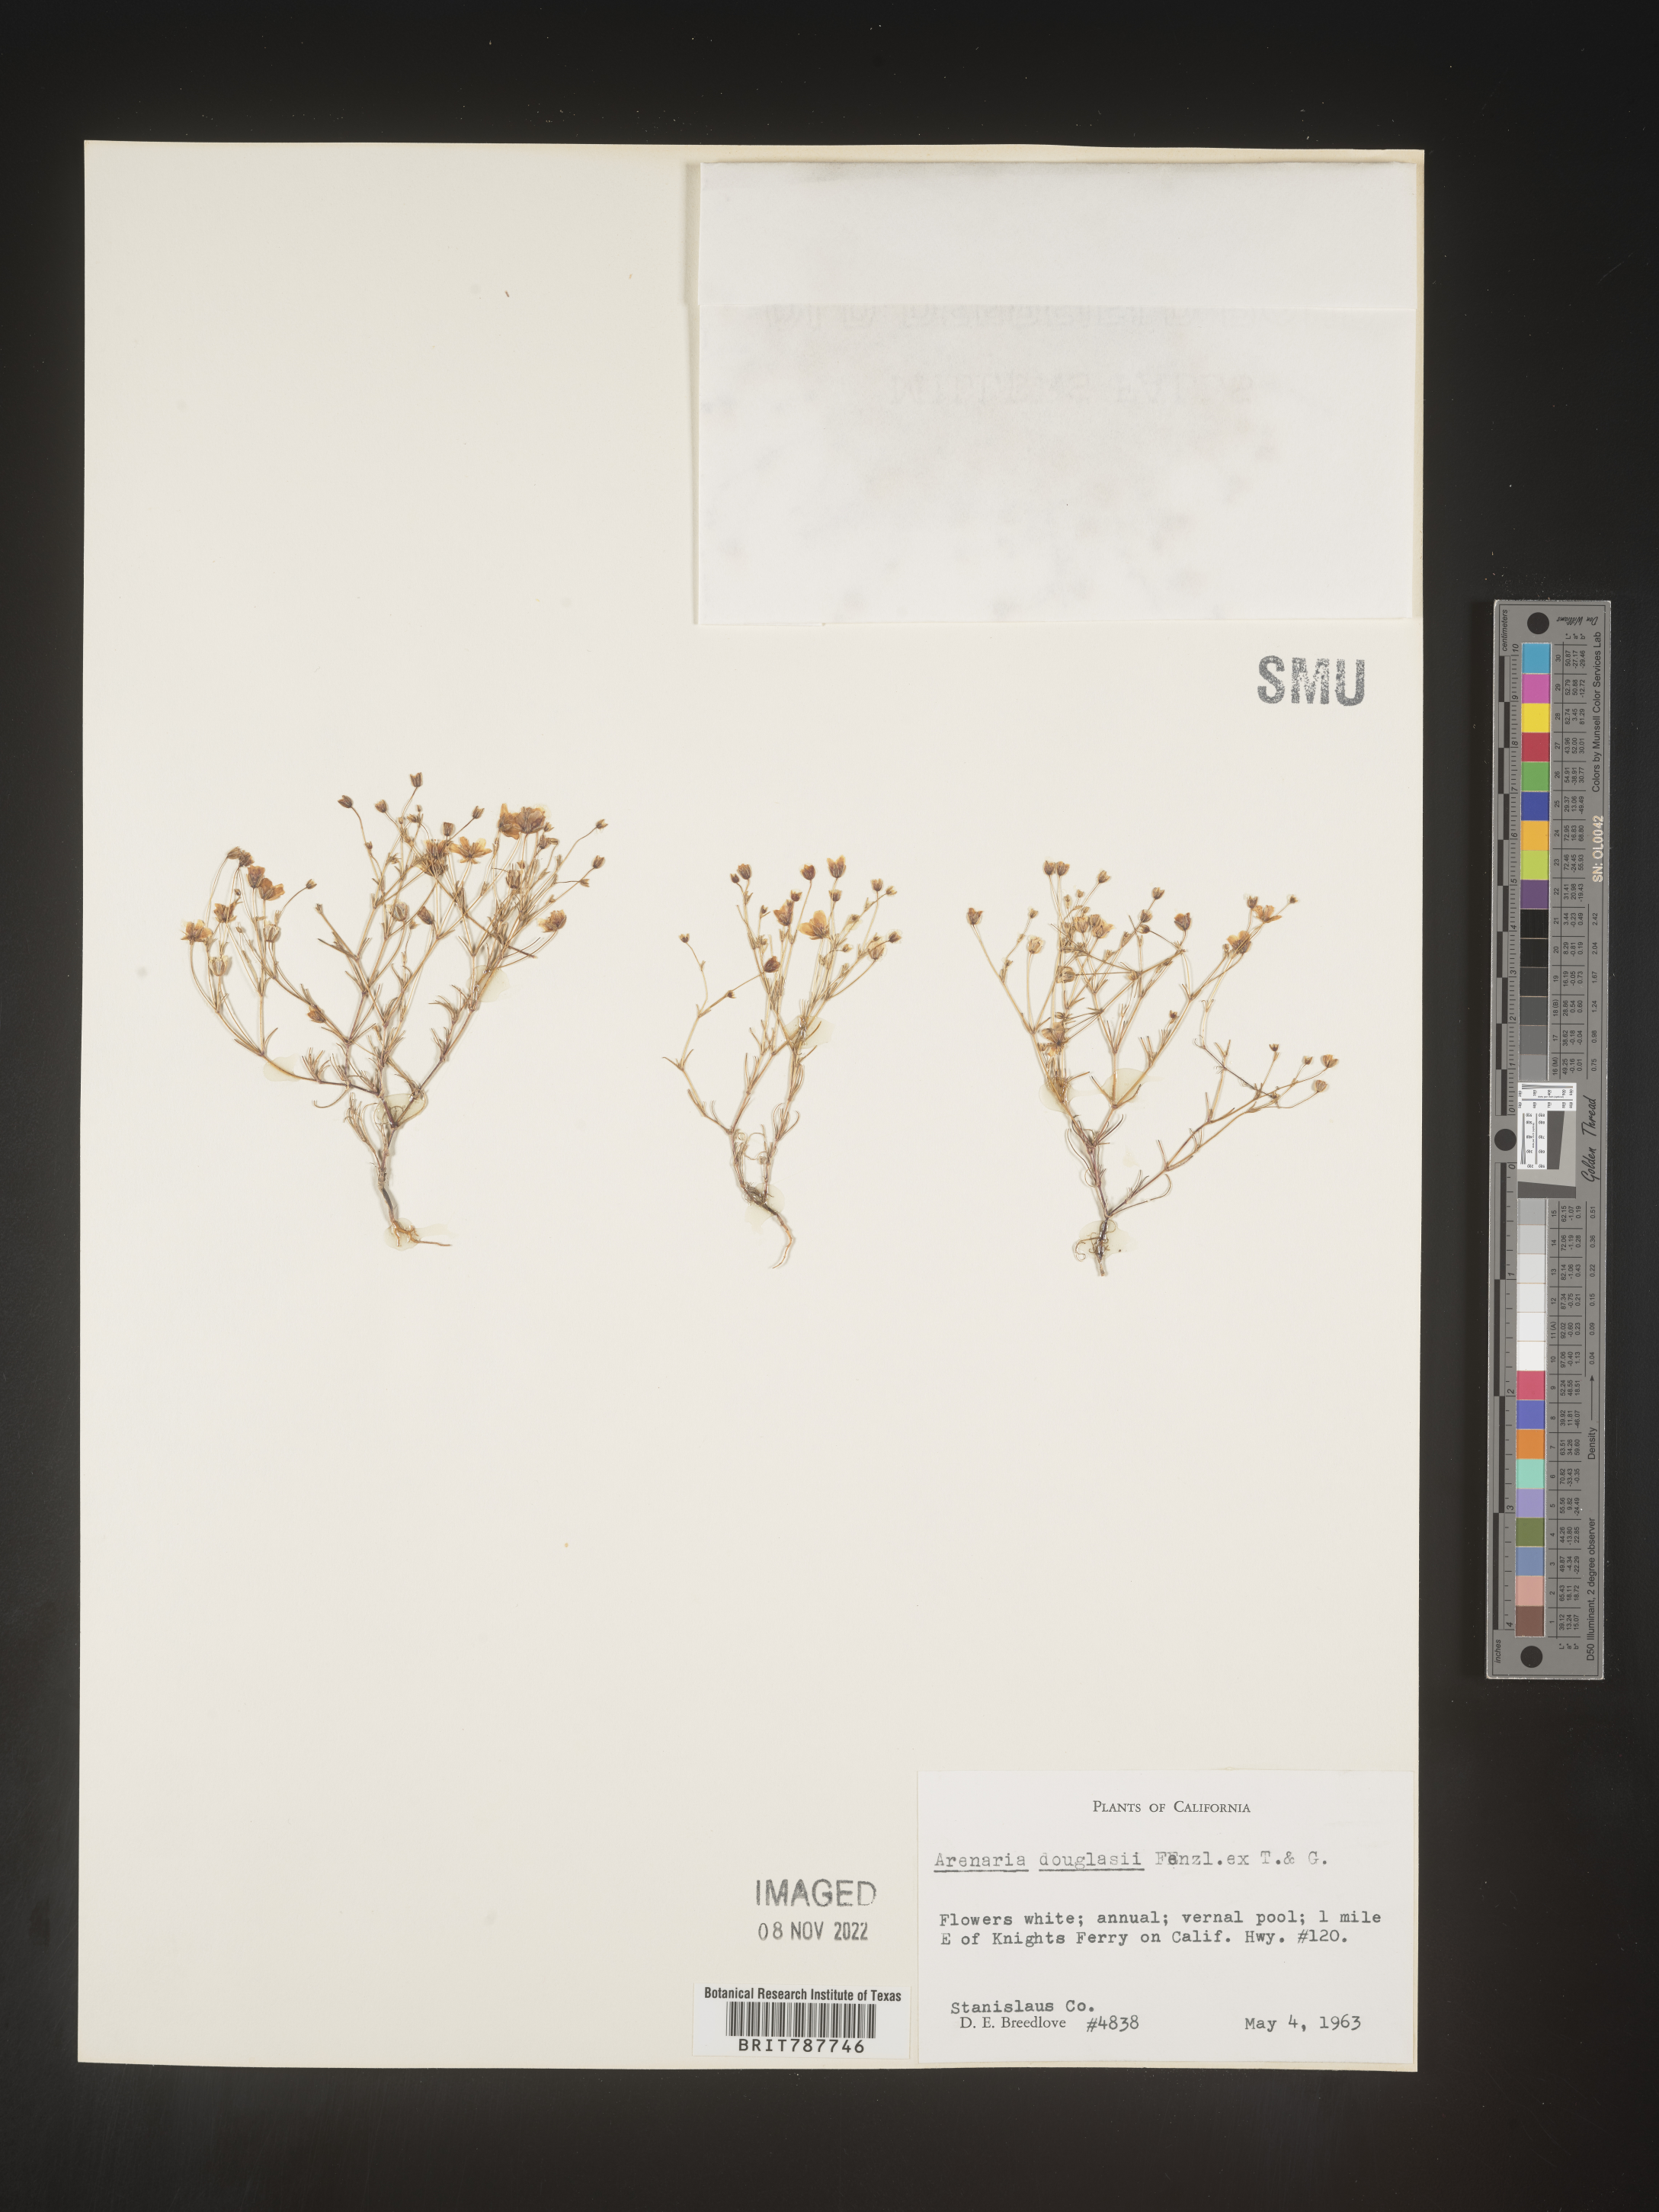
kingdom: Plantae
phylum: Tracheophyta
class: Magnoliopsida
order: Caryophyllales
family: Caryophyllaceae
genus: Arenaria
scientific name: Arenaria
